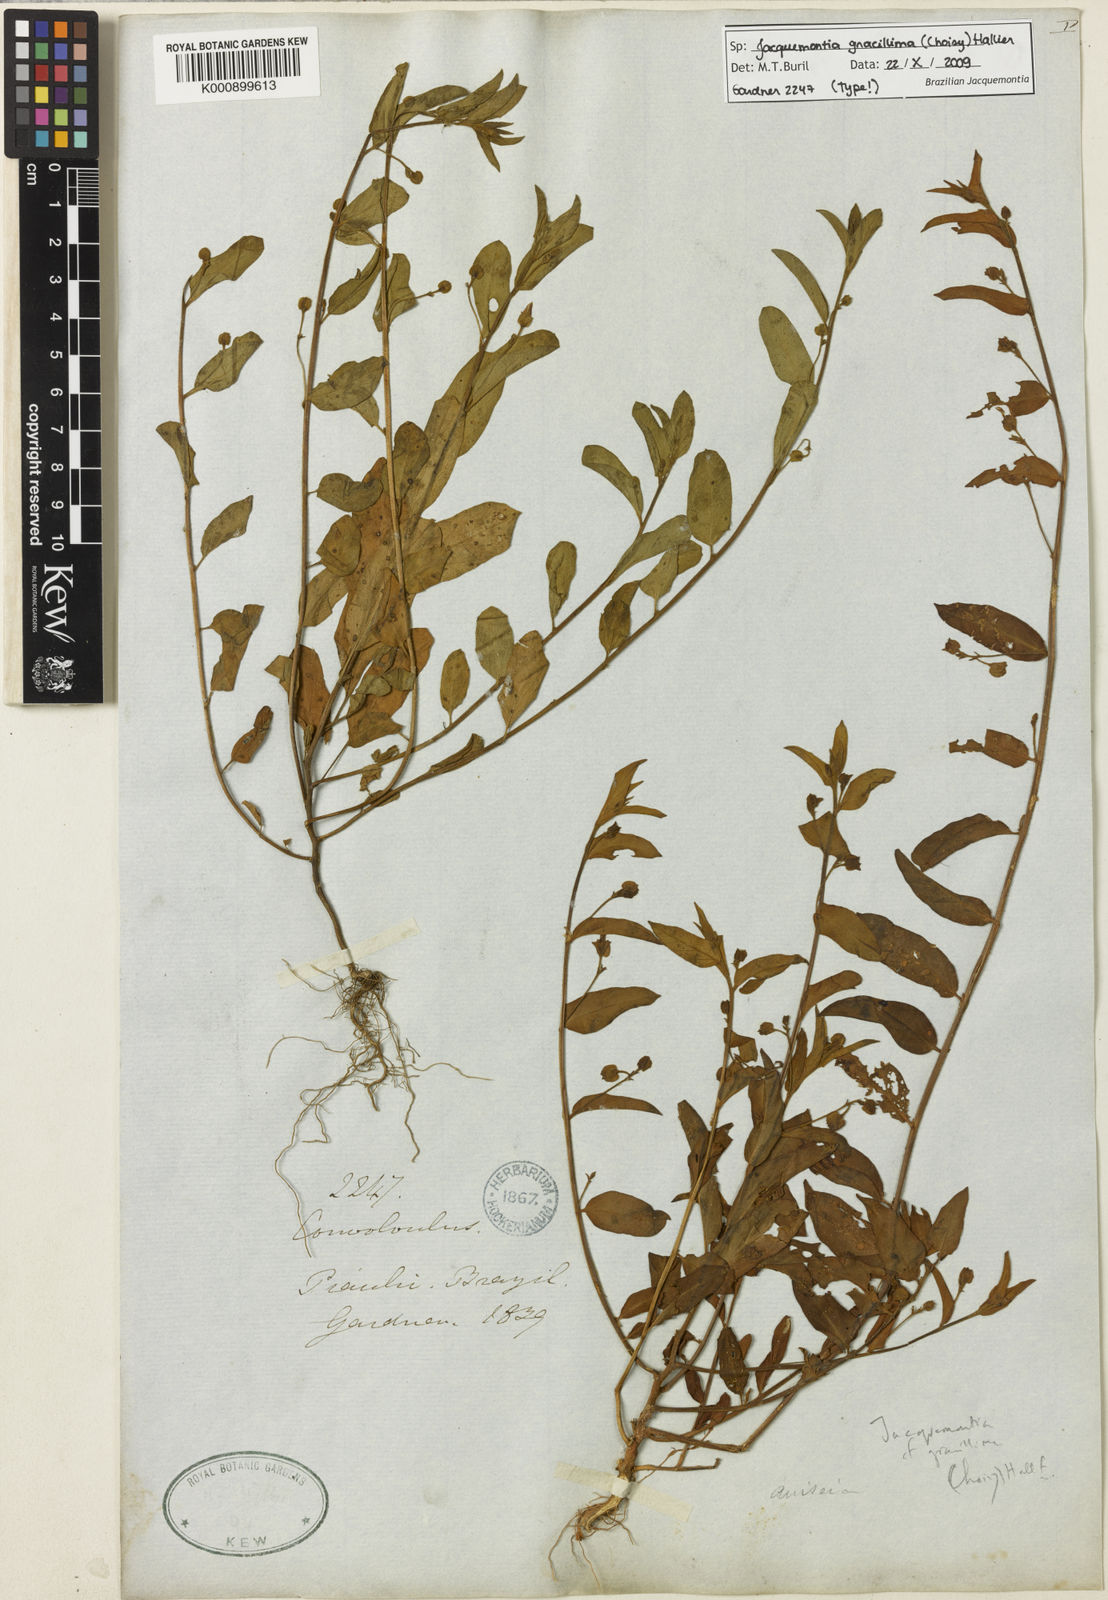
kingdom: Plantae
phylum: Tracheophyta
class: Magnoliopsida
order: Solanales
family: Convolvulaceae
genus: Jacquemontia
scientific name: Jacquemontia gracillima
